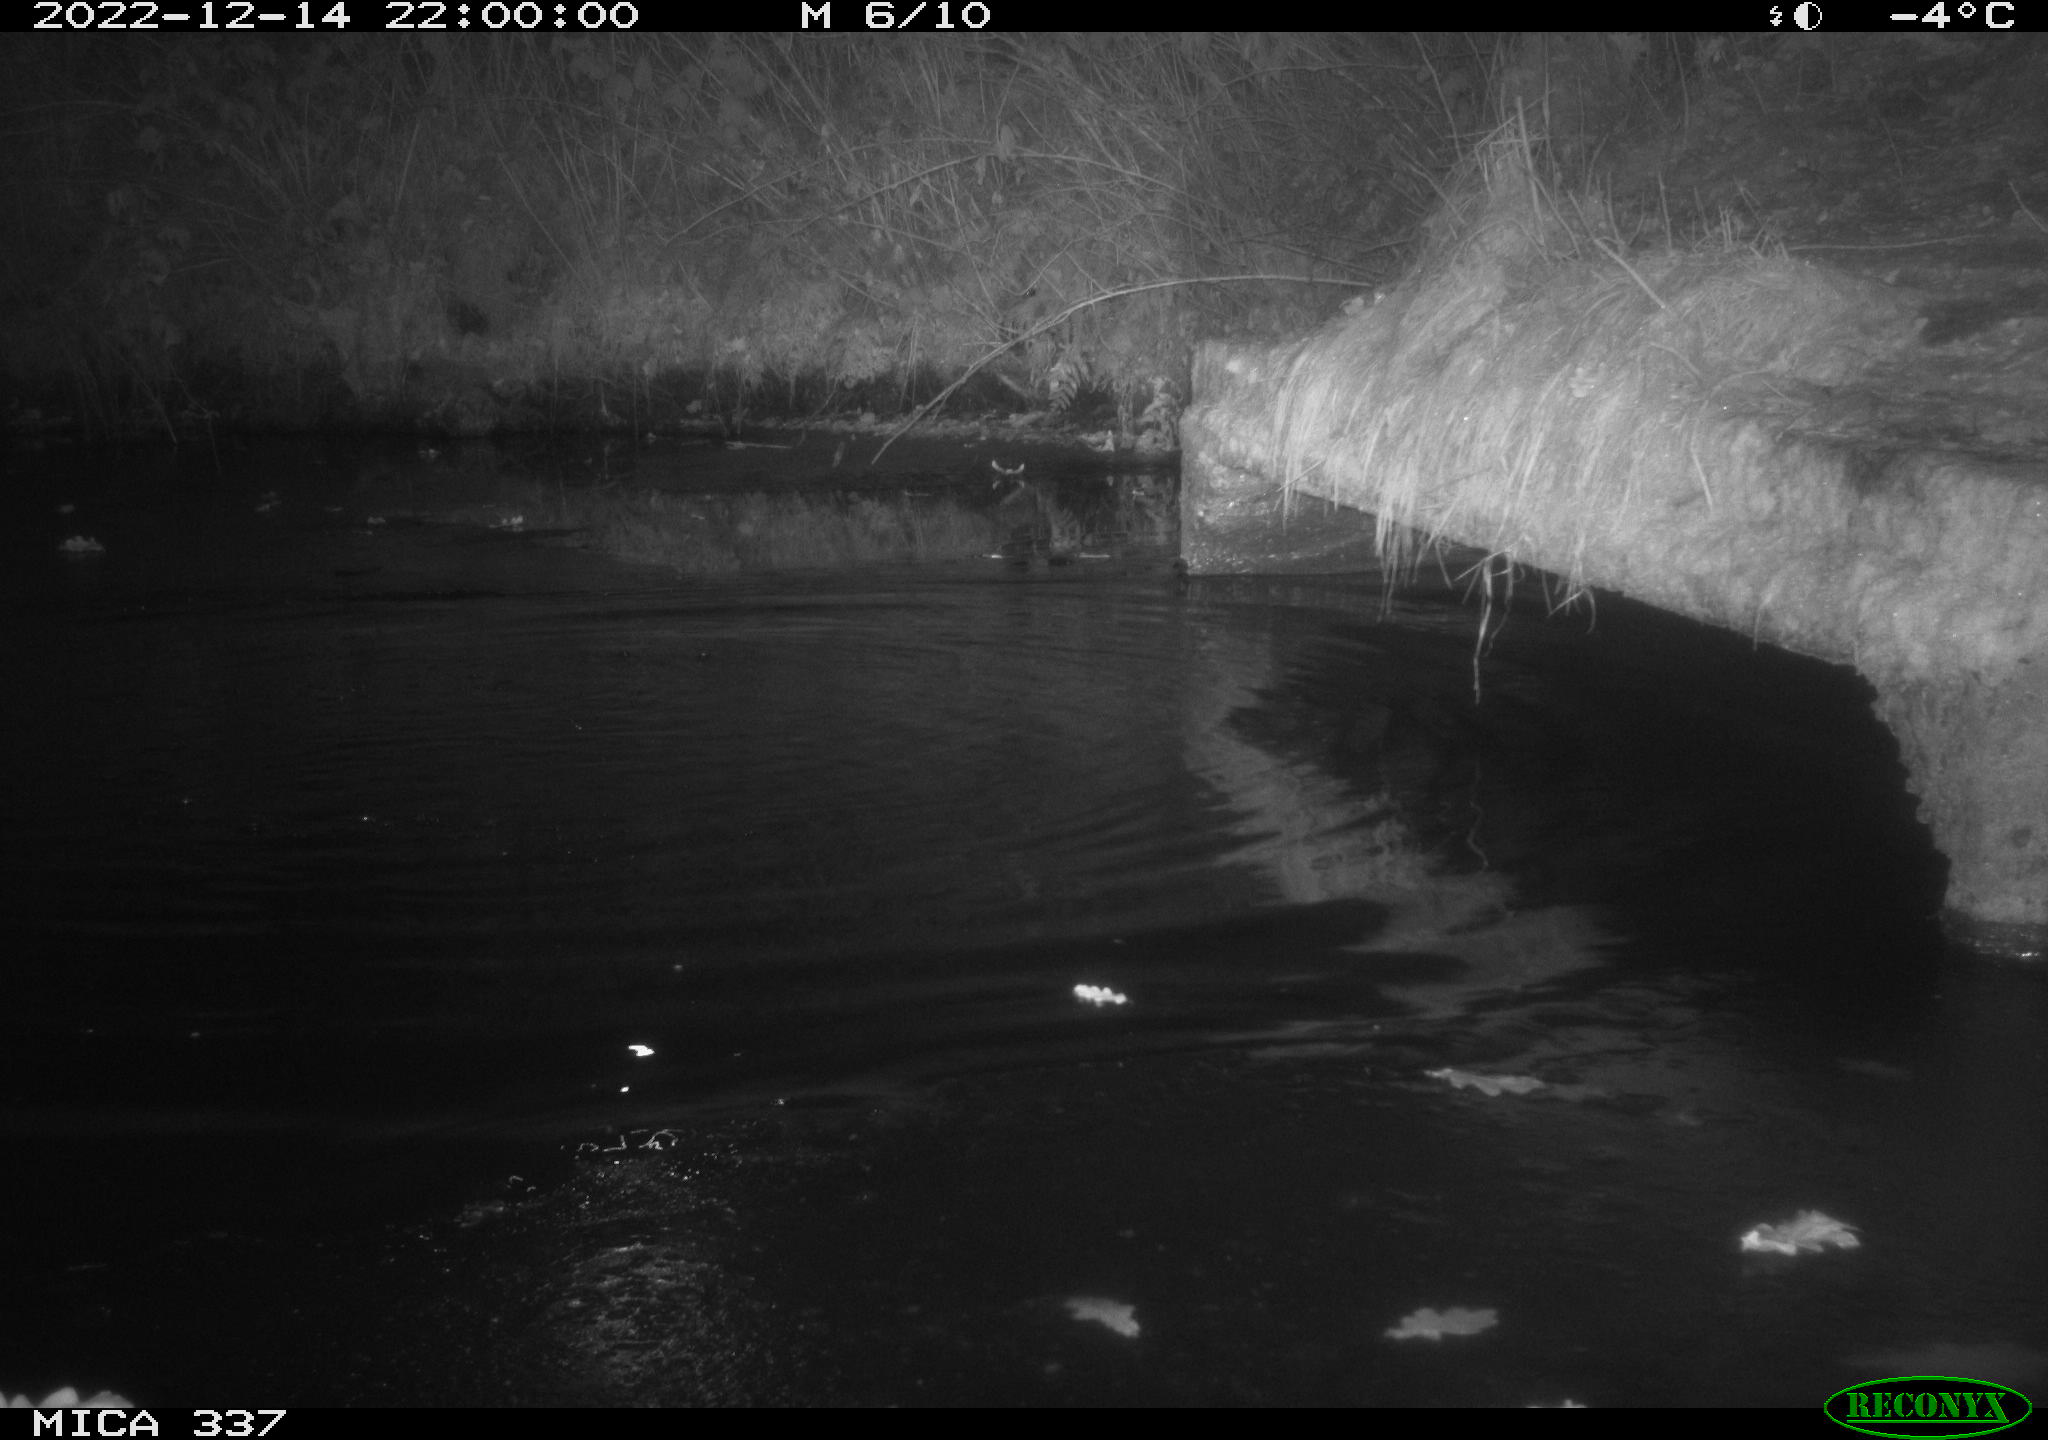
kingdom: Animalia
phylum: Chordata
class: Aves
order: Anseriformes
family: Anatidae
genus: Anas
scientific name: Anas
